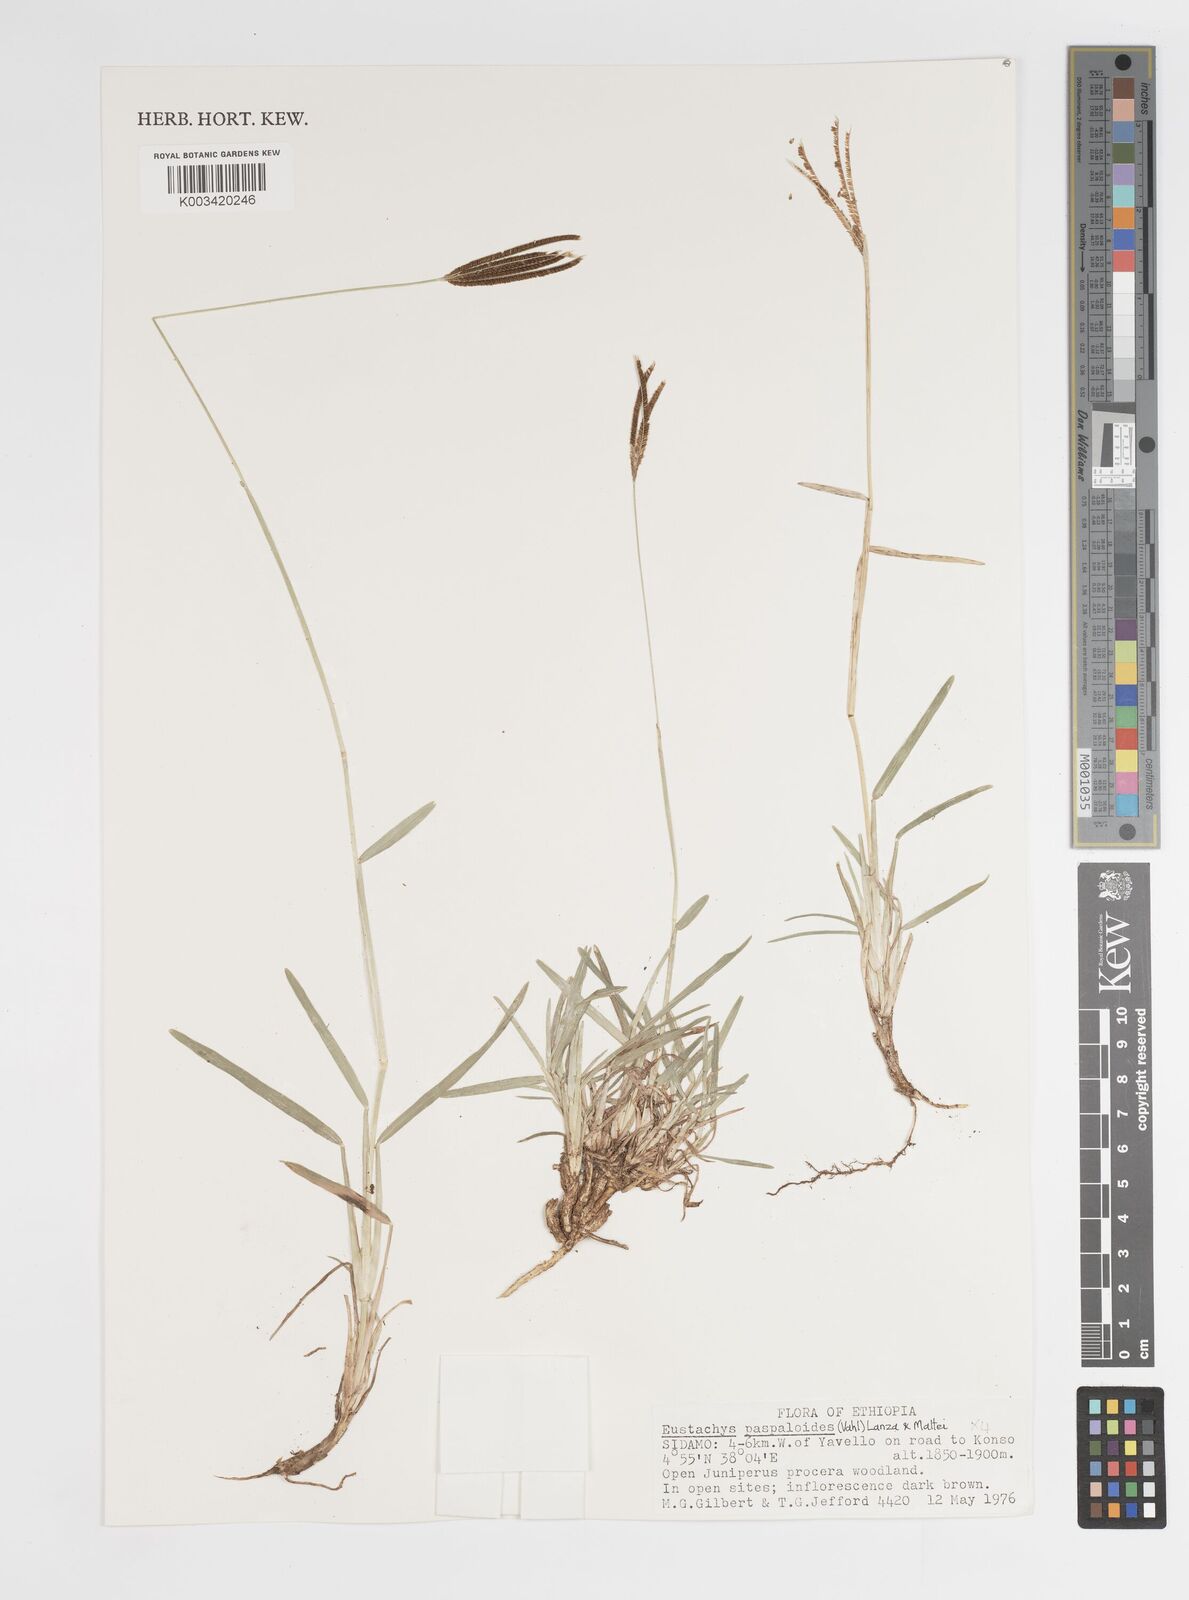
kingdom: Plantae
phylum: Tracheophyta
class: Liliopsida
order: Poales
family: Poaceae
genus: Eustachys
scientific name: Eustachys paspaloides
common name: Caribbean fingergrass
